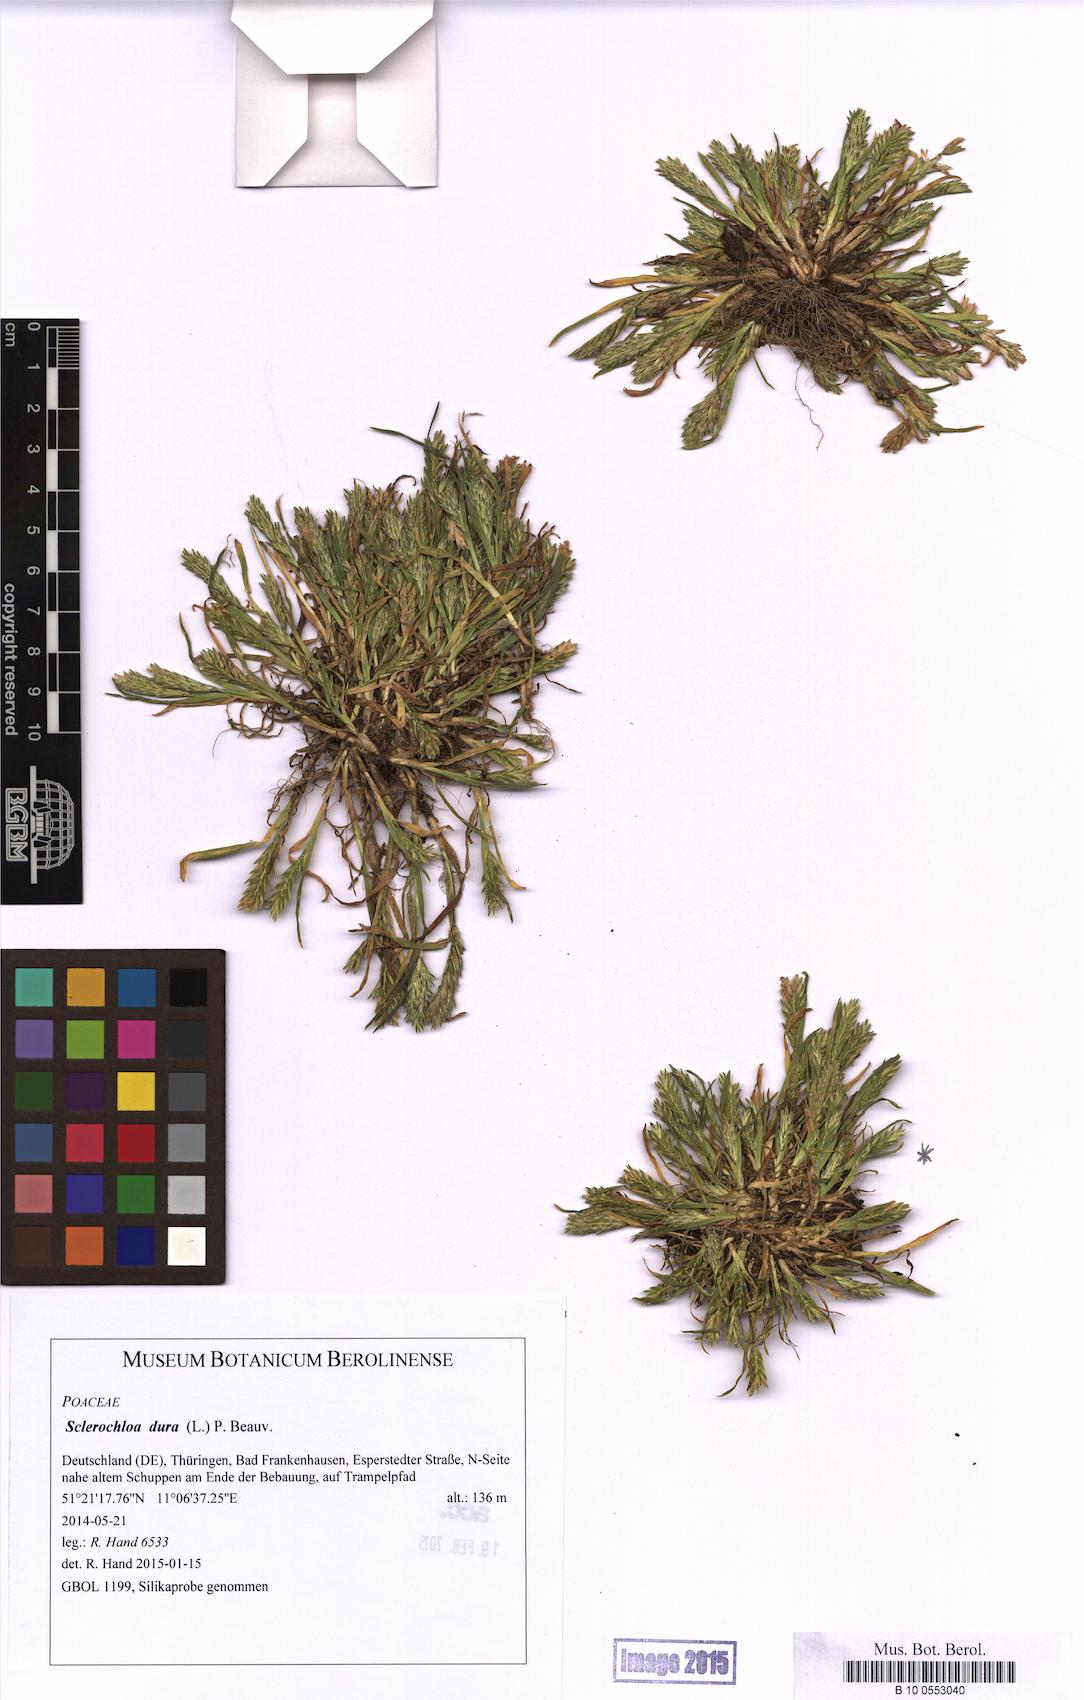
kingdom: Plantae
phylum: Tracheophyta
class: Liliopsida
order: Poales
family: Poaceae
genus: Sclerochloa
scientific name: Sclerochloa dura
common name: Common hardgrass
